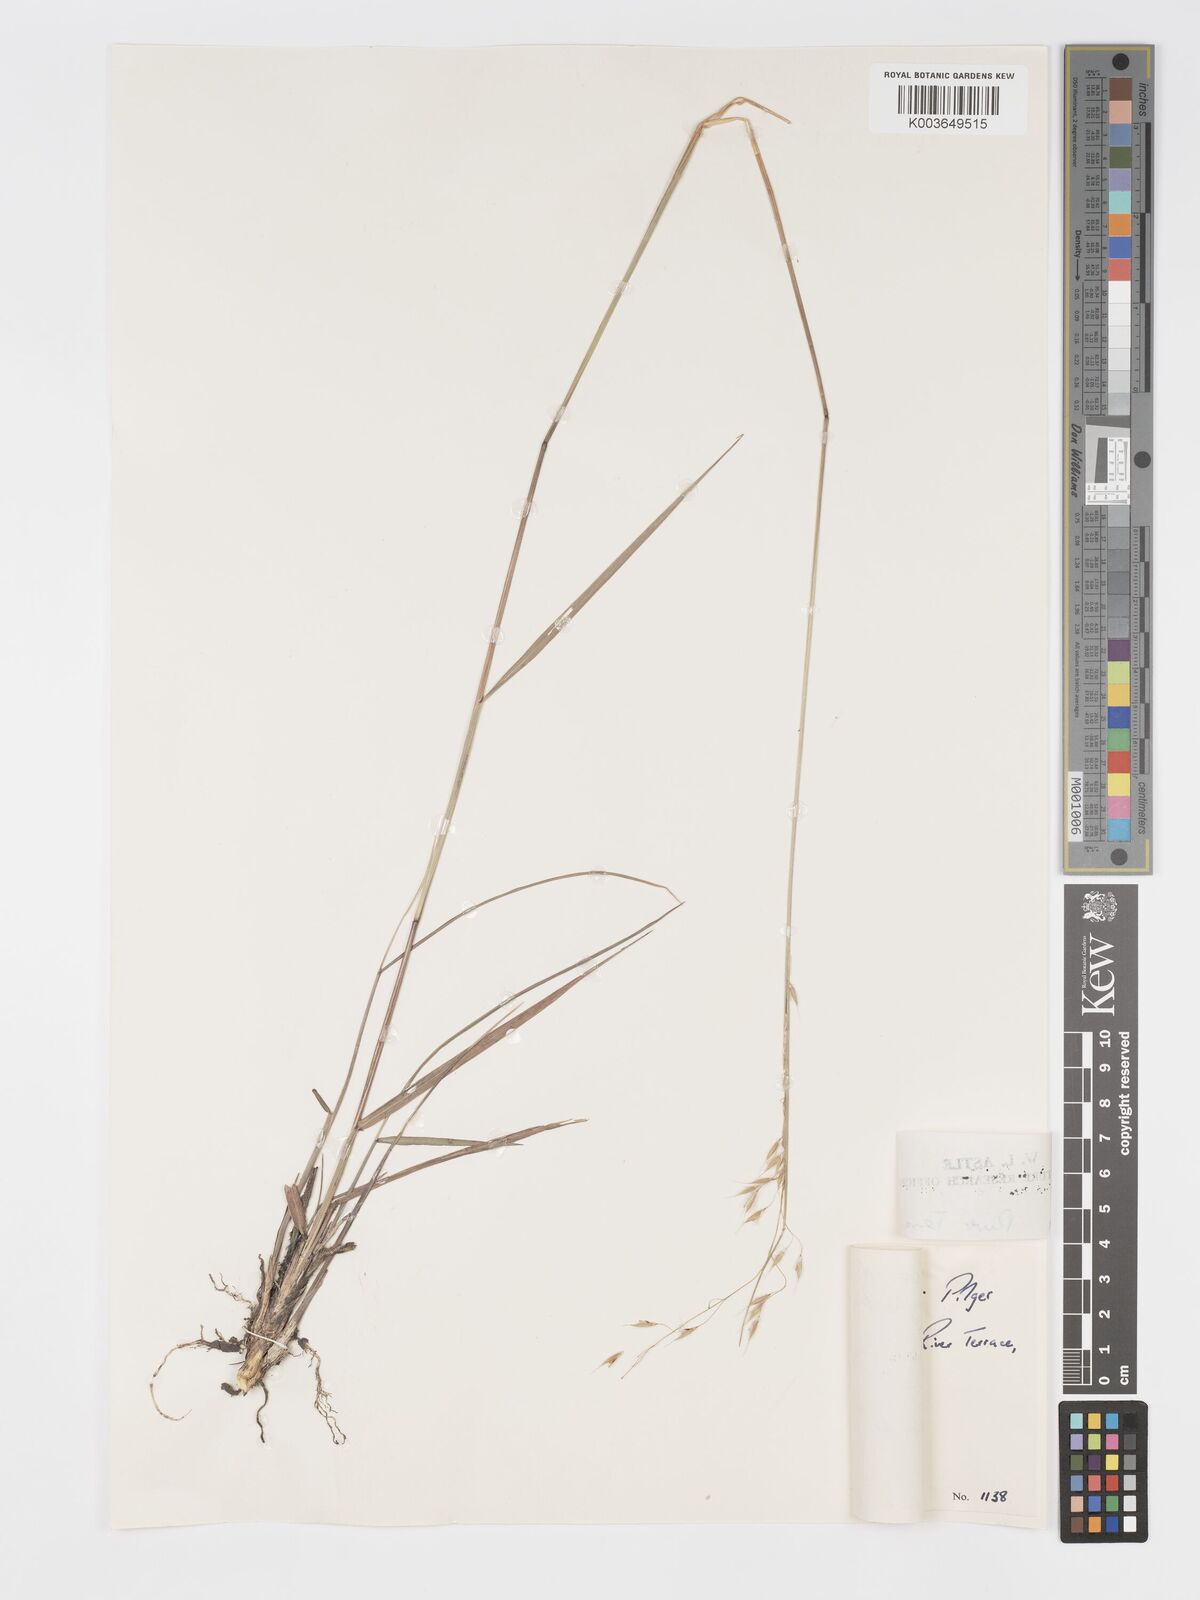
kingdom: Plantae
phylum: Tracheophyta
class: Liliopsida
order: Poales
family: Poaceae
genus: Sorghastrum
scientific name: Sorghastrum nudipes
